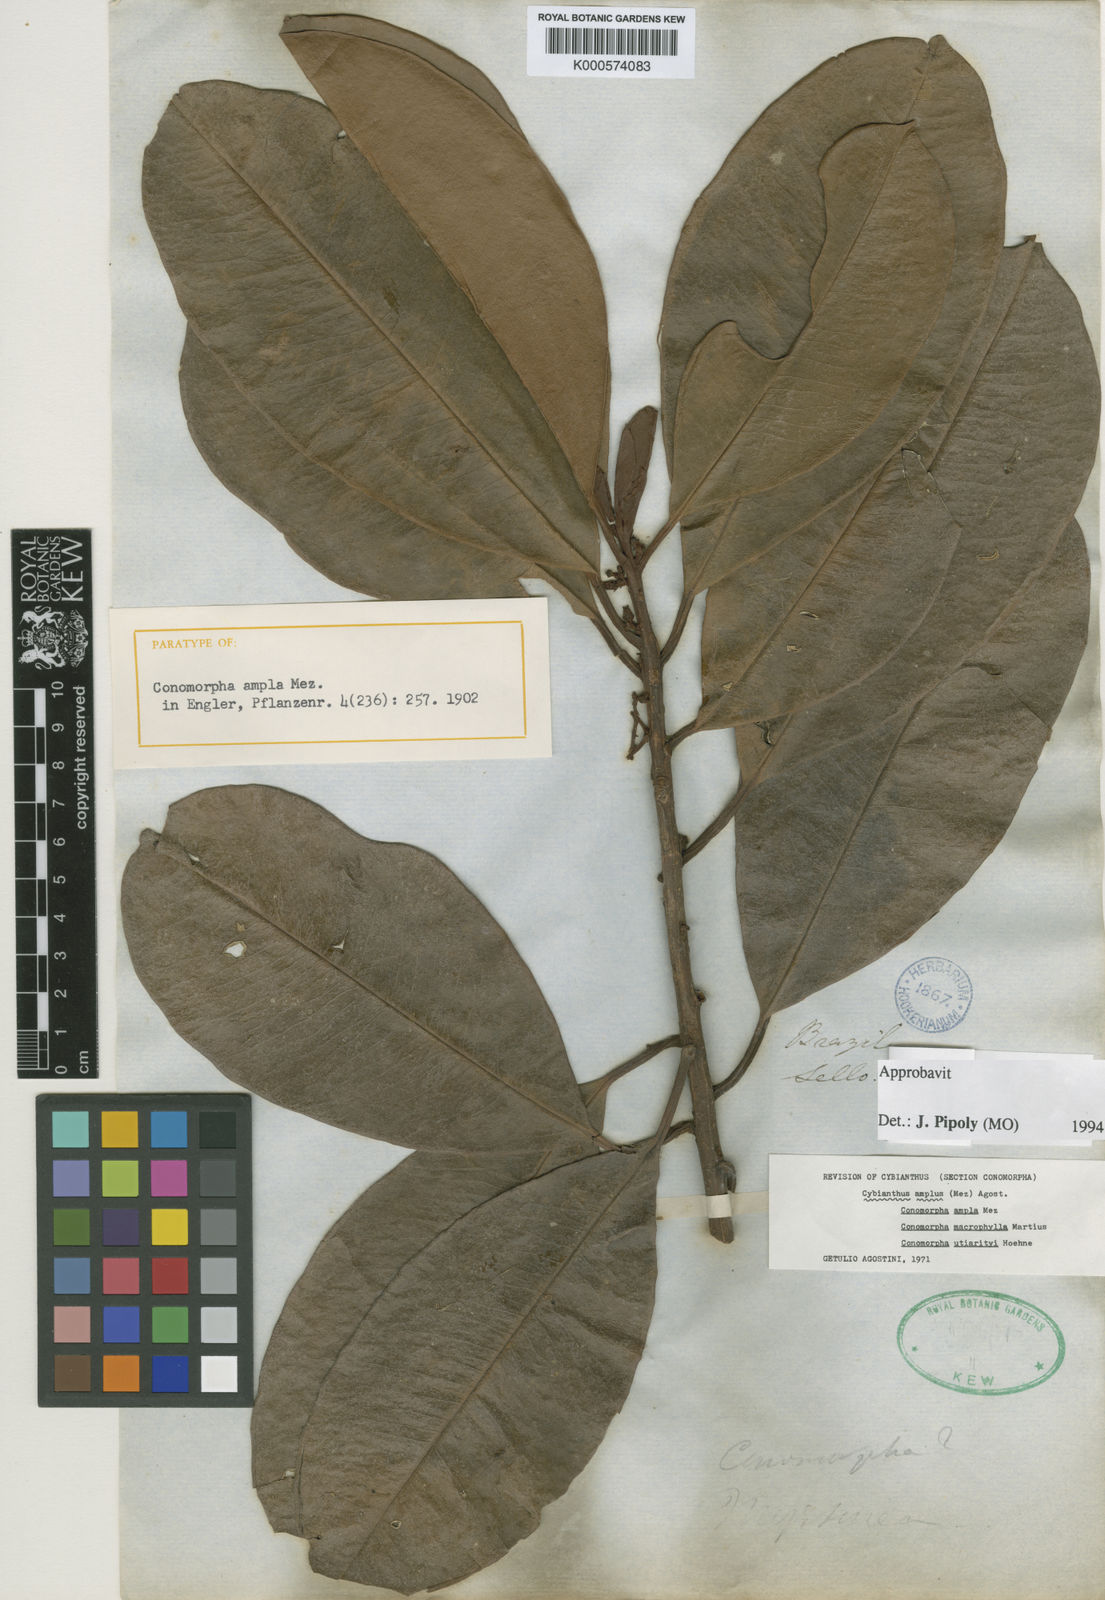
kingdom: Plantae
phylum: Tracheophyta
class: Magnoliopsida
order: Ericales
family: Primulaceae
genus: Cybianthus
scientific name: Cybianthus amplus
